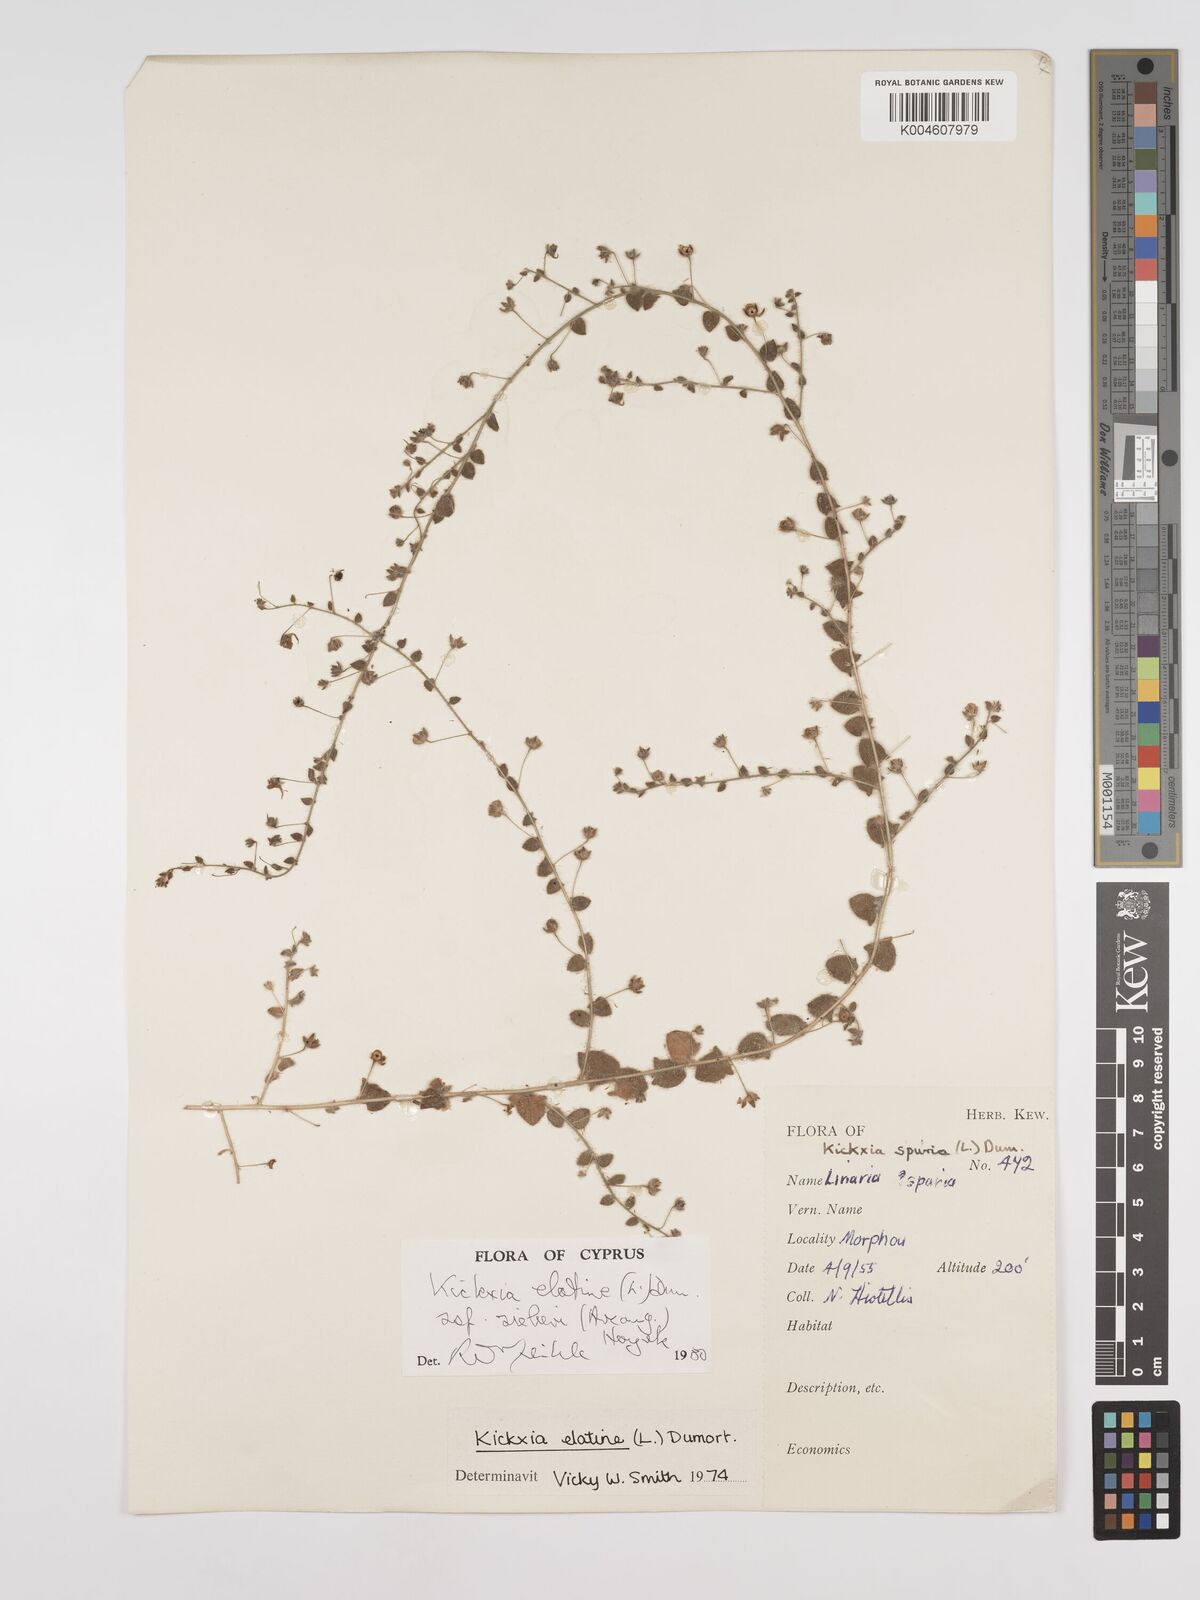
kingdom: Plantae
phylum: Tracheophyta
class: Magnoliopsida
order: Lamiales
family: Plantaginaceae
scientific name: Plantaginaceae
